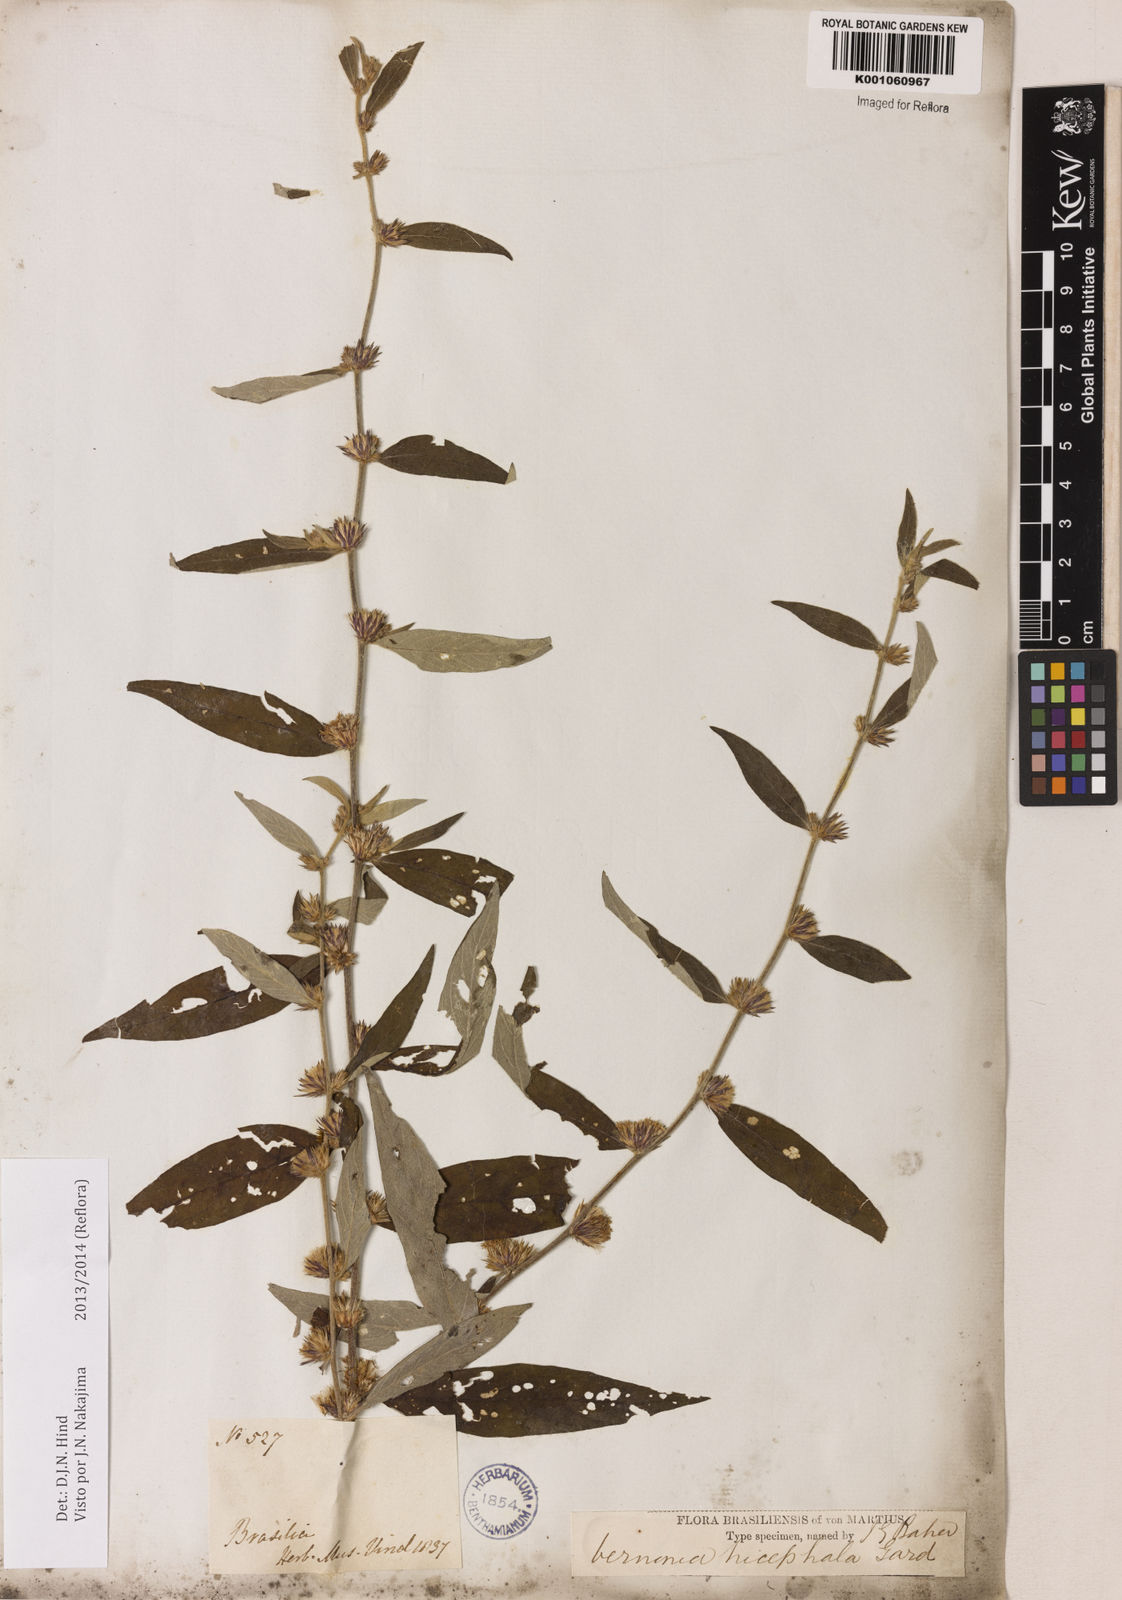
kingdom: Plantae
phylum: Tracheophyta
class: Magnoliopsida
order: Asterales
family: Asteraceae
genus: Lepidaploa
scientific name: Lepidaploa rufogrisea
